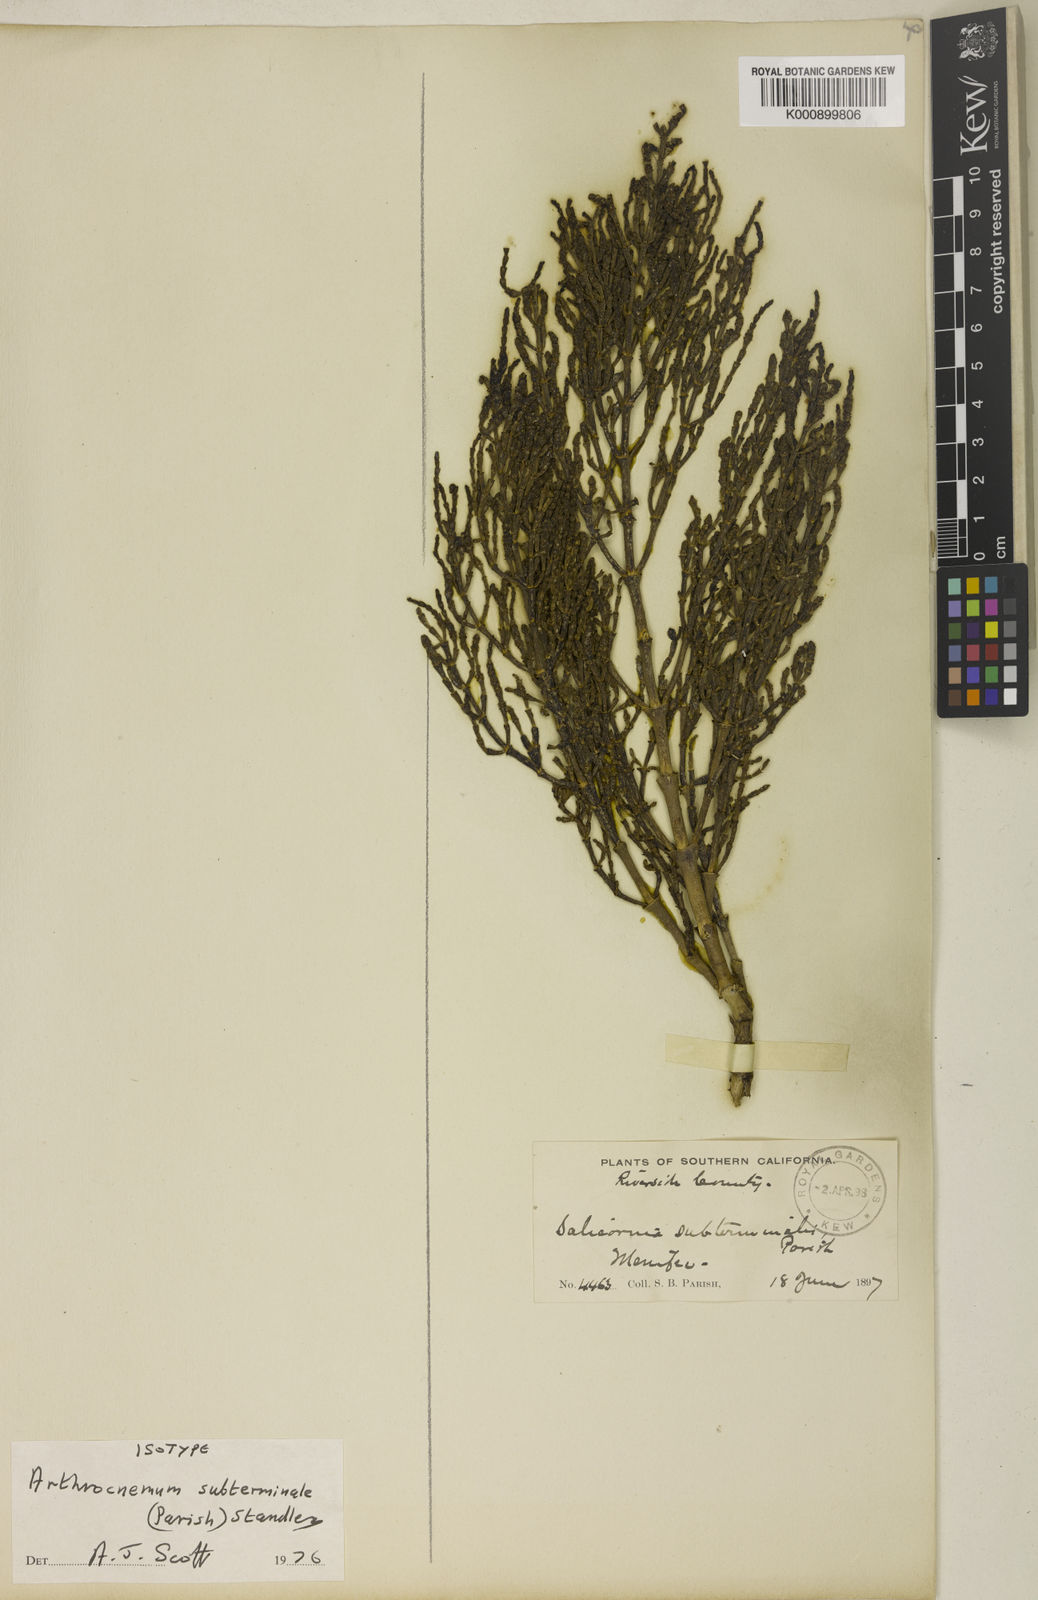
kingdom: Plantae
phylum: Tracheophyta
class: Magnoliopsida
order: Caryophyllales
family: Amaranthaceae
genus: Arthroceras
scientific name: Arthroceras subterminale
